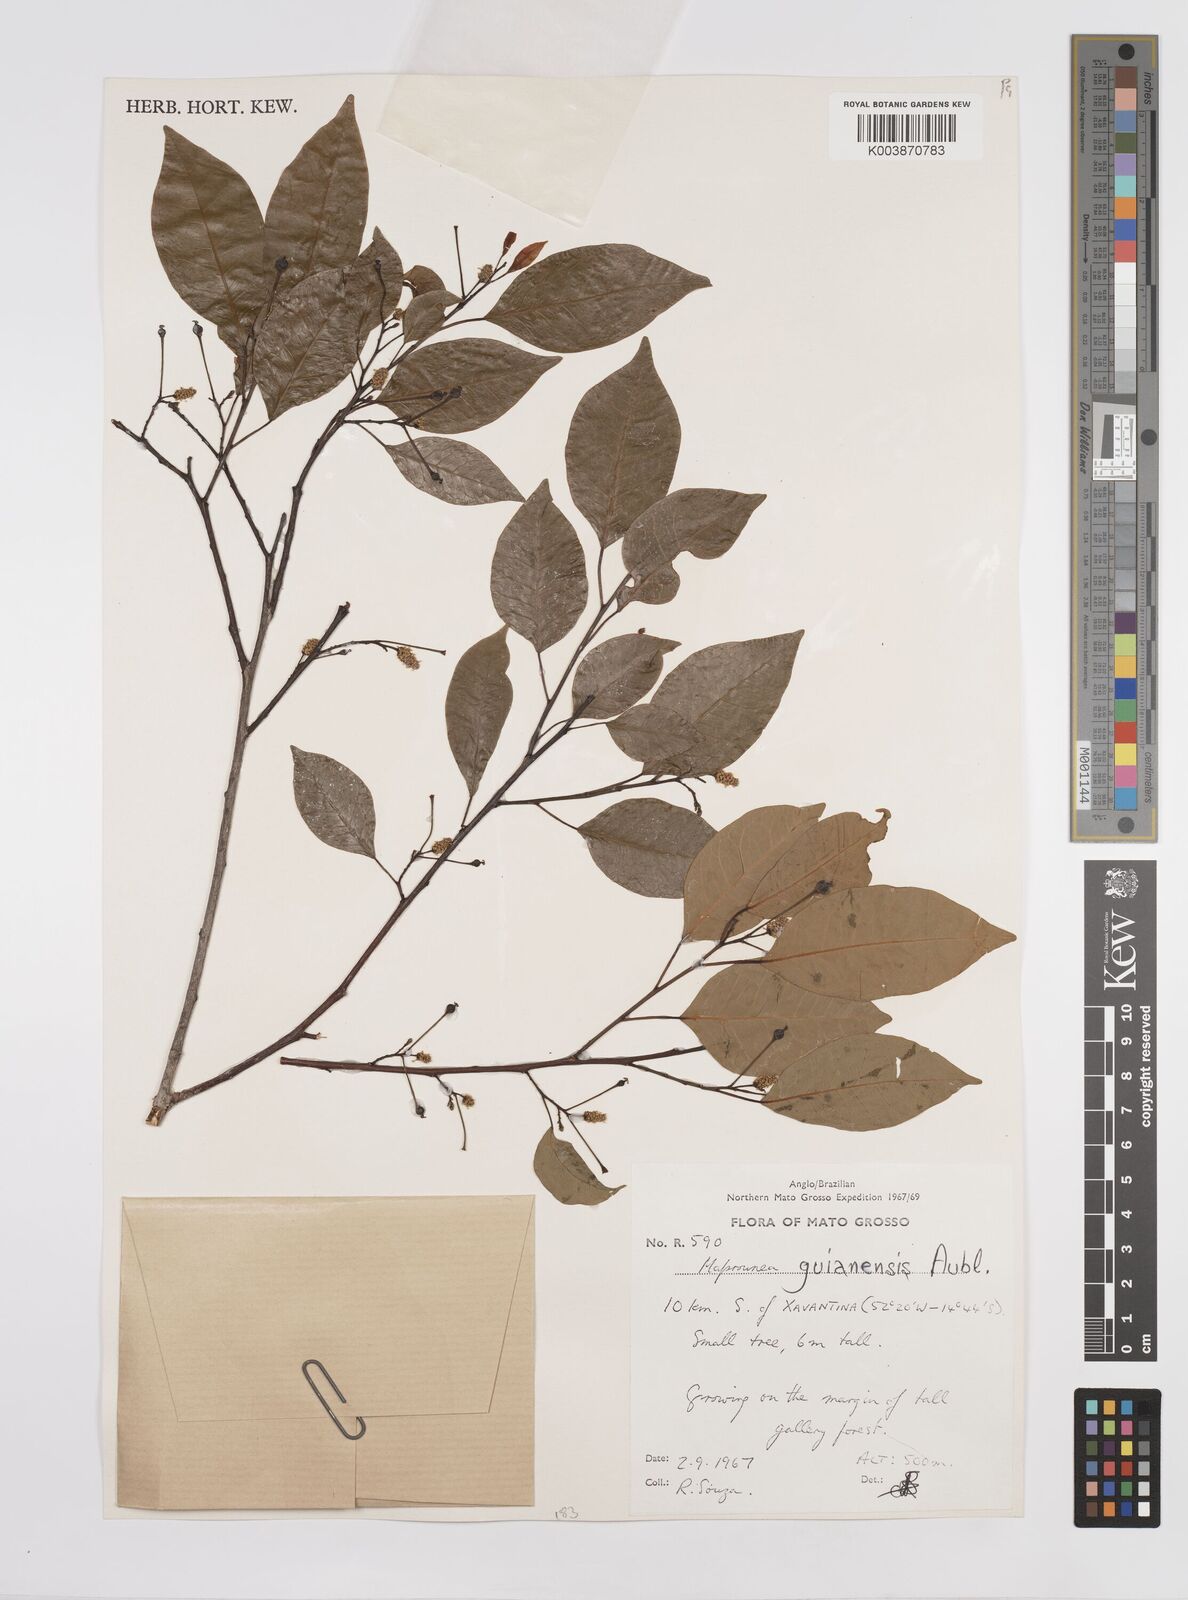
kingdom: Plantae
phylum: Tracheophyta
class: Magnoliopsida
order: Malpighiales
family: Euphorbiaceae
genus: Maprounea
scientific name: Maprounea guianensis
